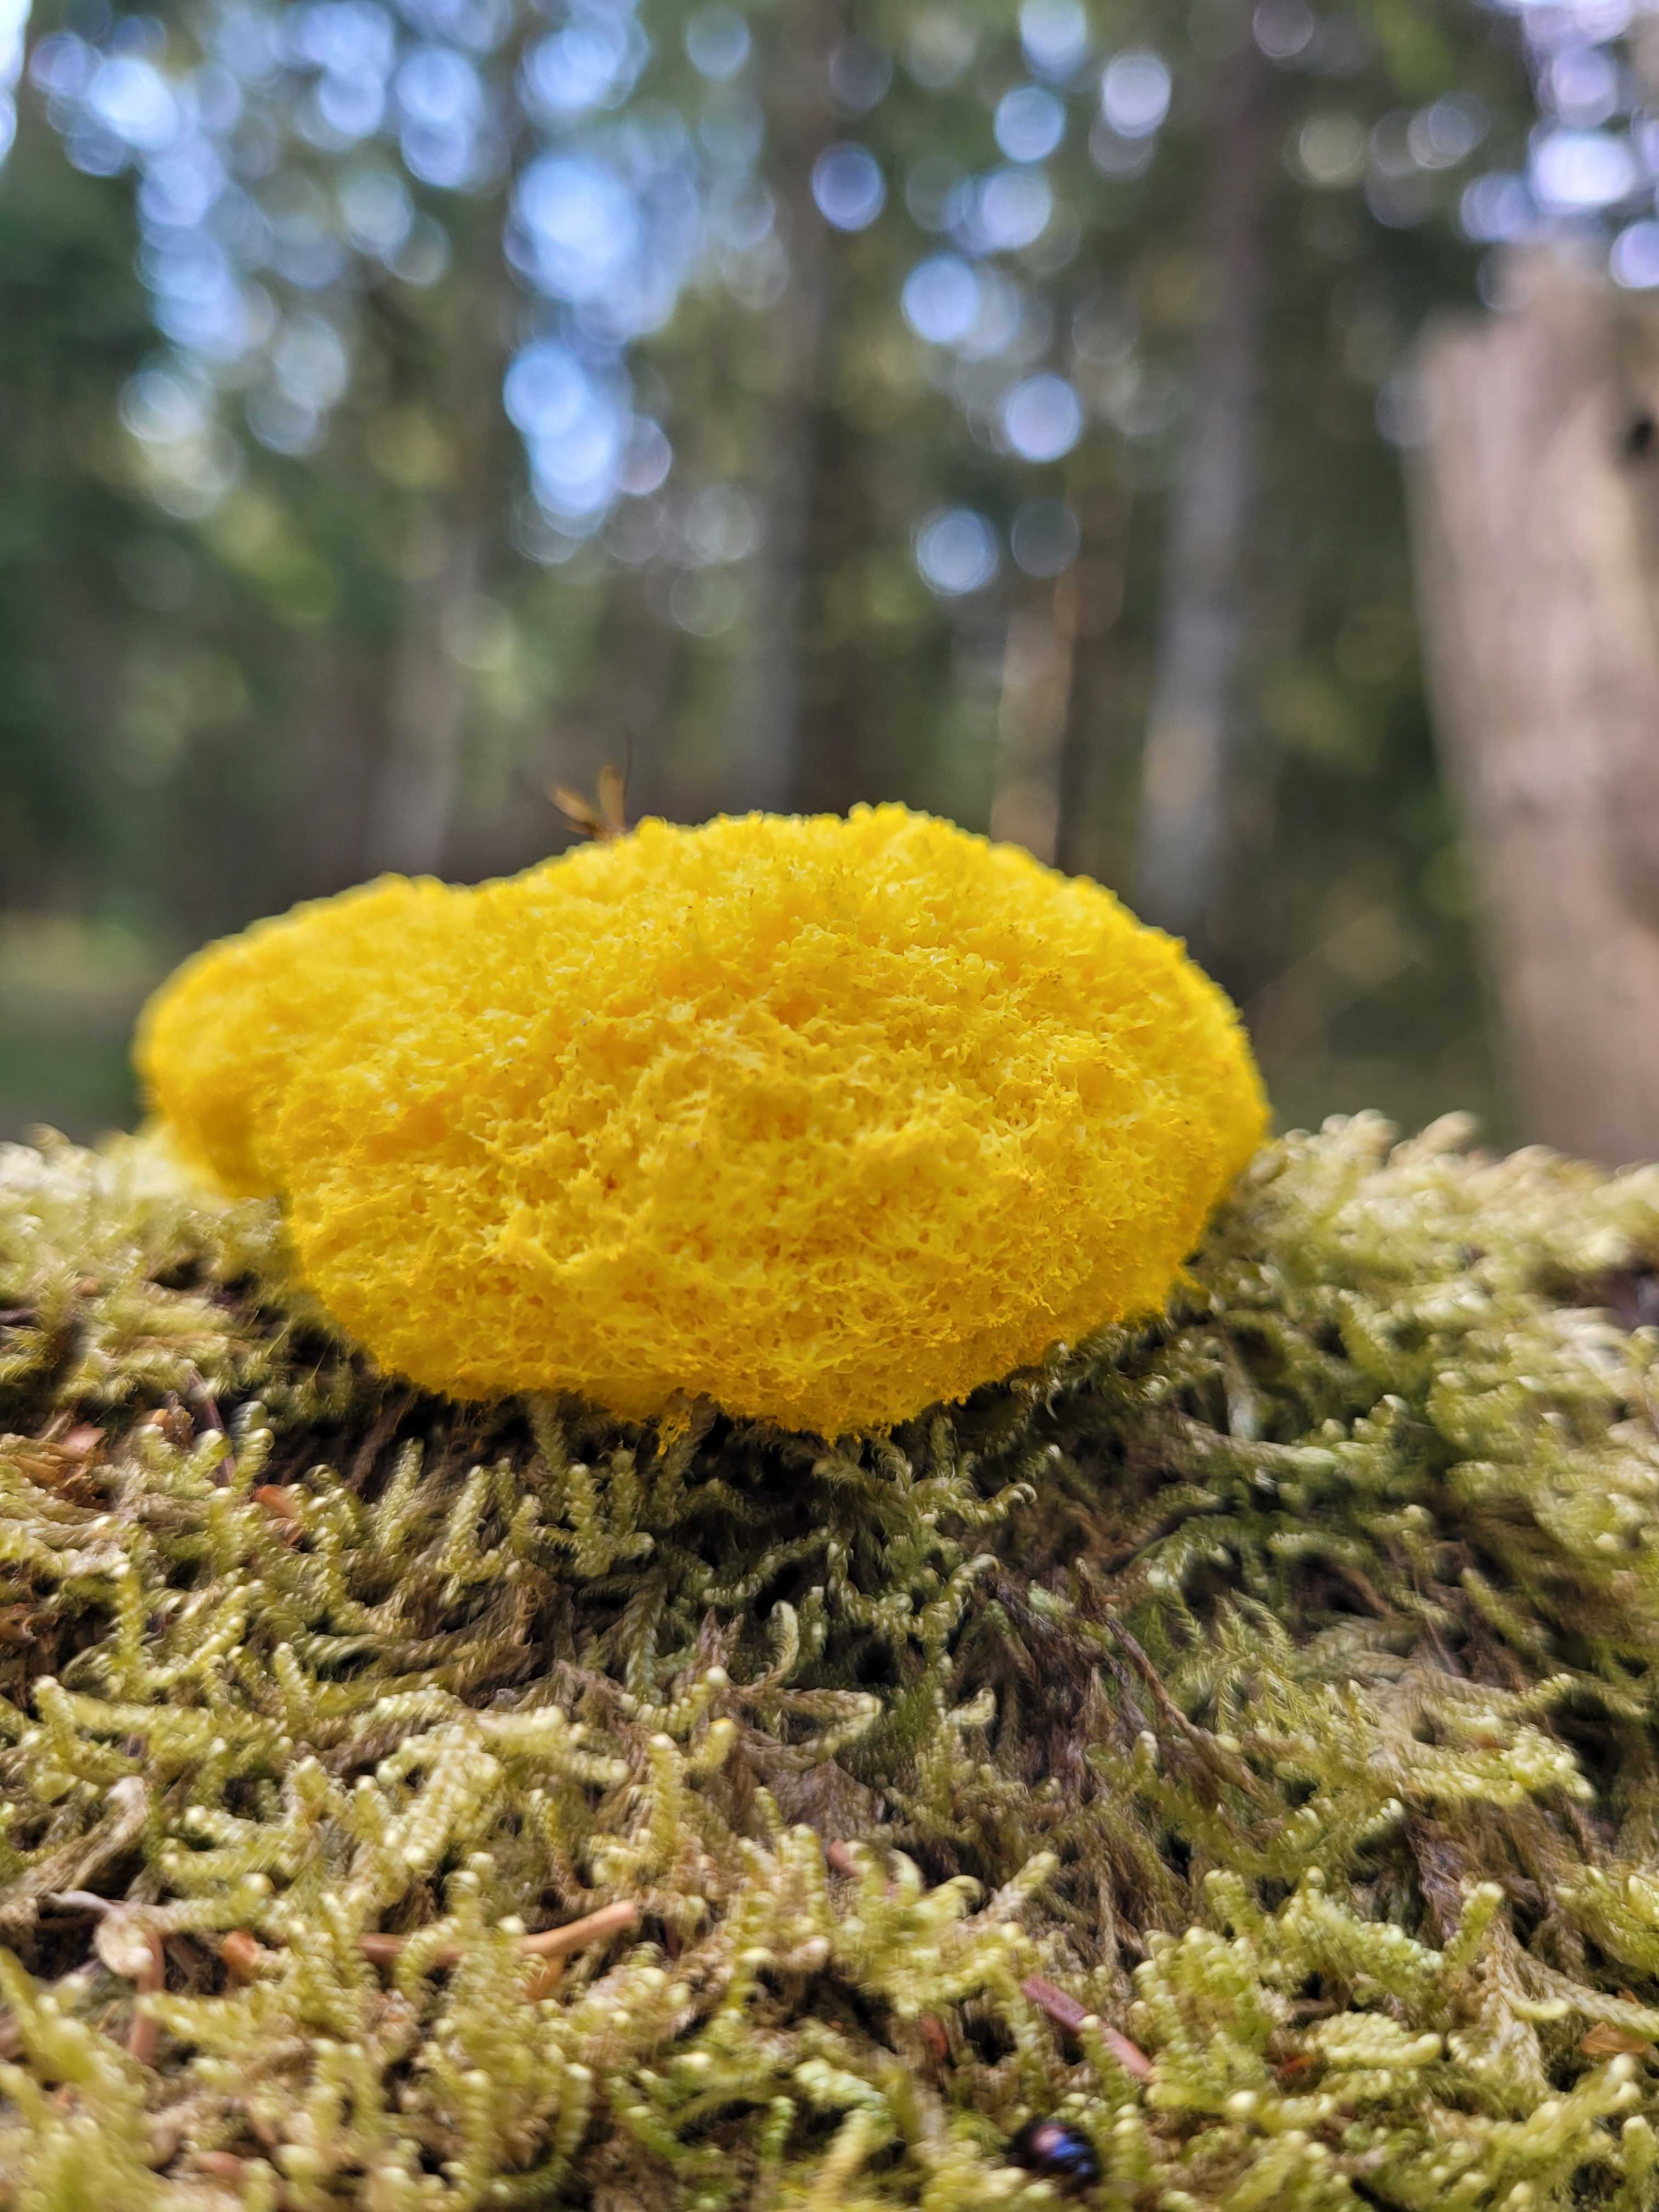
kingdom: Protozoa
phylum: Mycetozoa
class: Myxomycetes
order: Physarales
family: Physaraceae
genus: Fuligo
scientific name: Fuligo septica
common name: gul troldsmør
